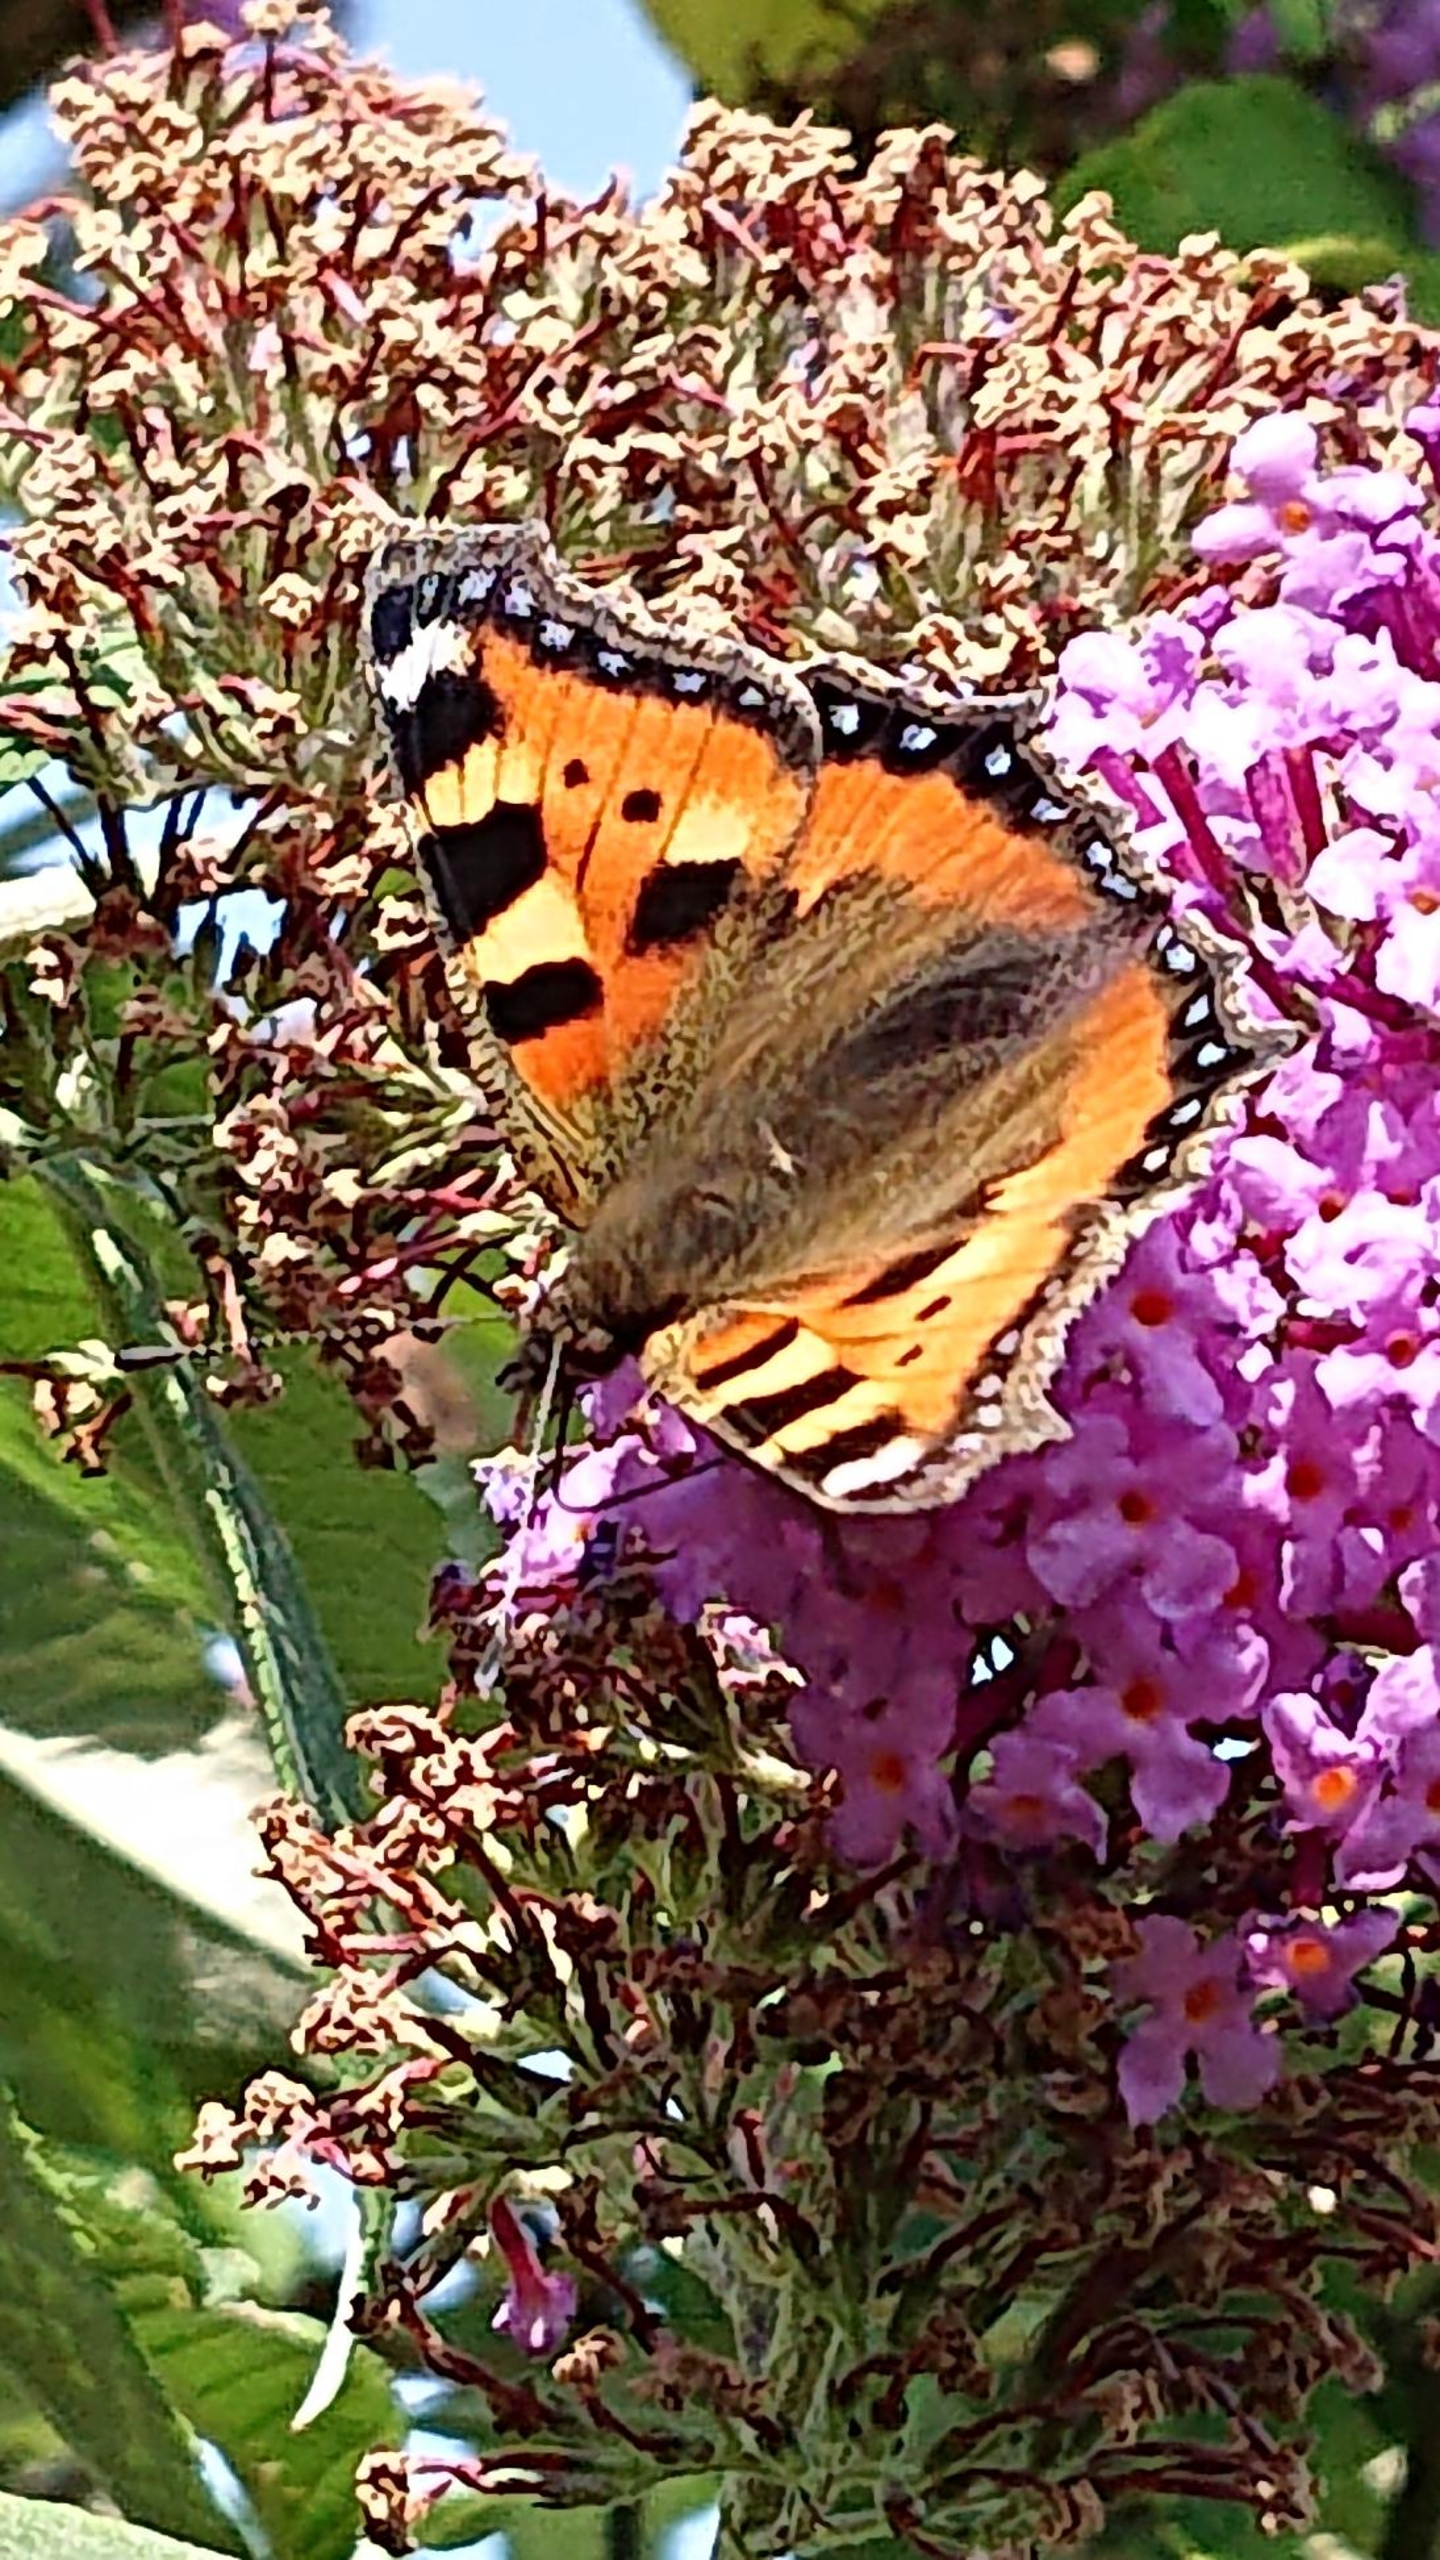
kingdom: Animalia
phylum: Arthropoda
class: Insecta
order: Lepidoptera
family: Nymphalidae
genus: Aglais
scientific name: Aglais urticae
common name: Nældens takvinge
